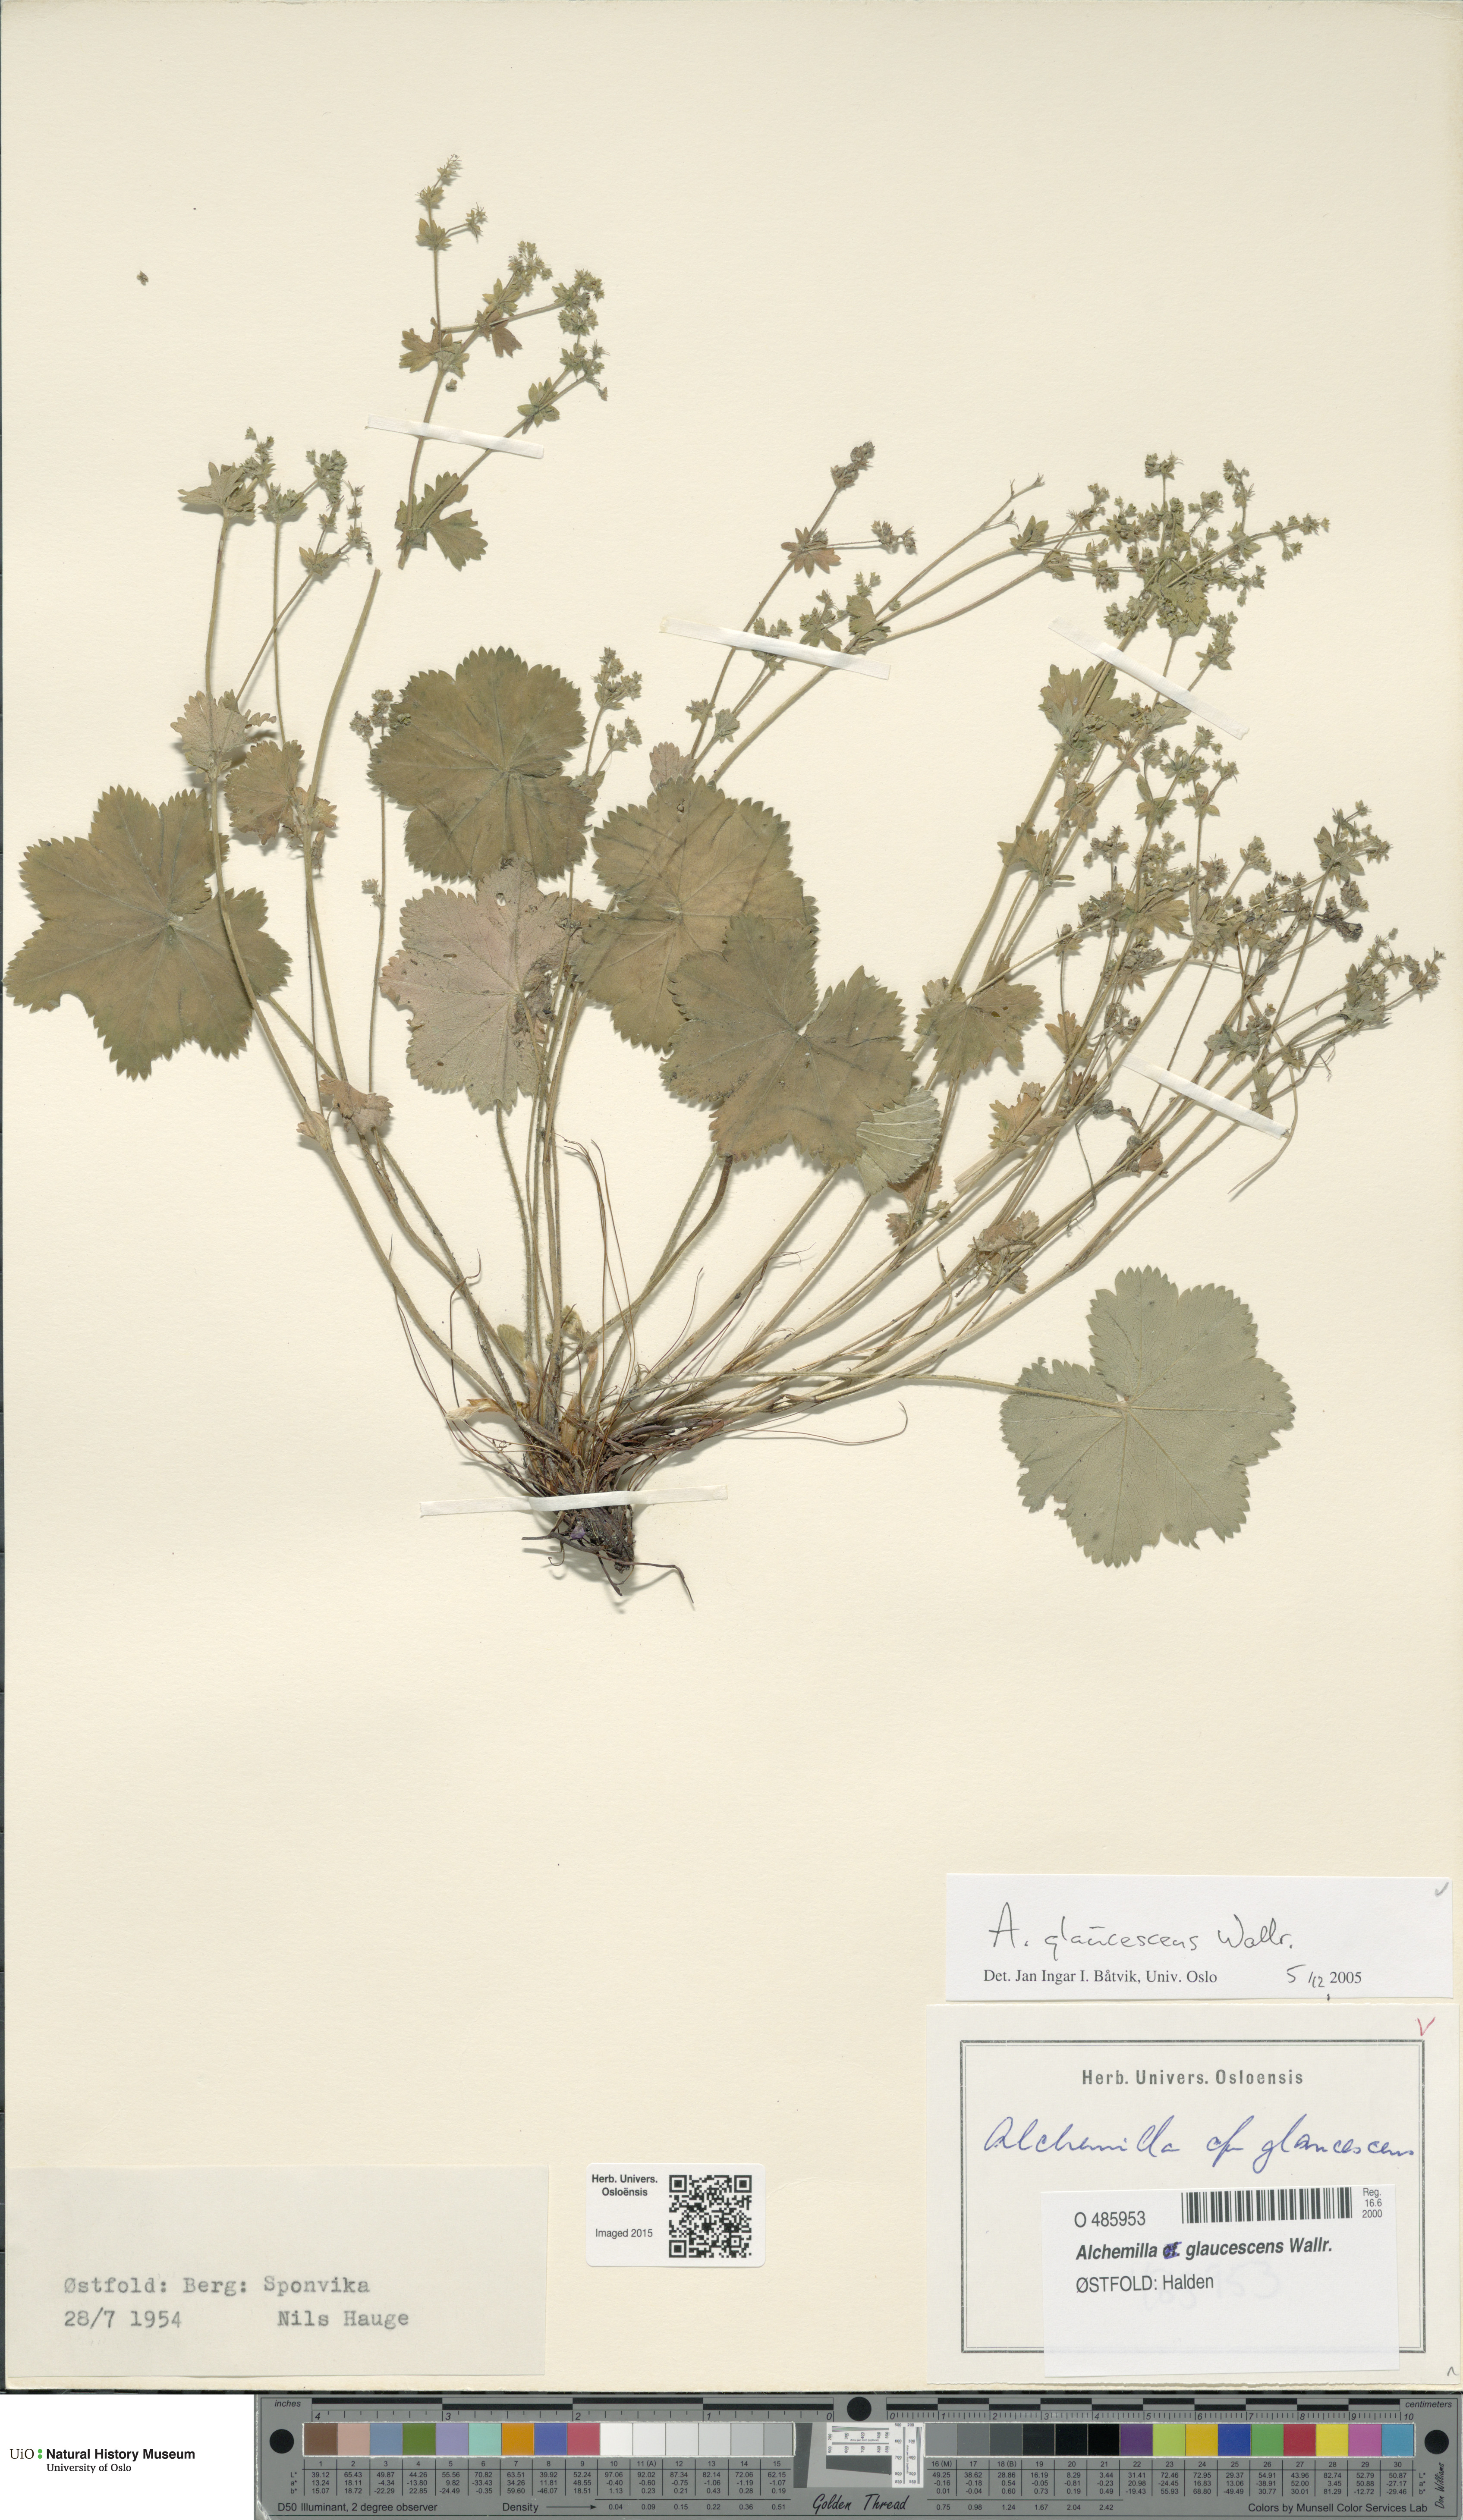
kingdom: Plantae
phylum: Tracheophyta
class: Magnoliopsida
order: Rosales
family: Rosaceae
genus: Alchemilla
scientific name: Alchemilla glaucescens
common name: Silky lady's mantle
